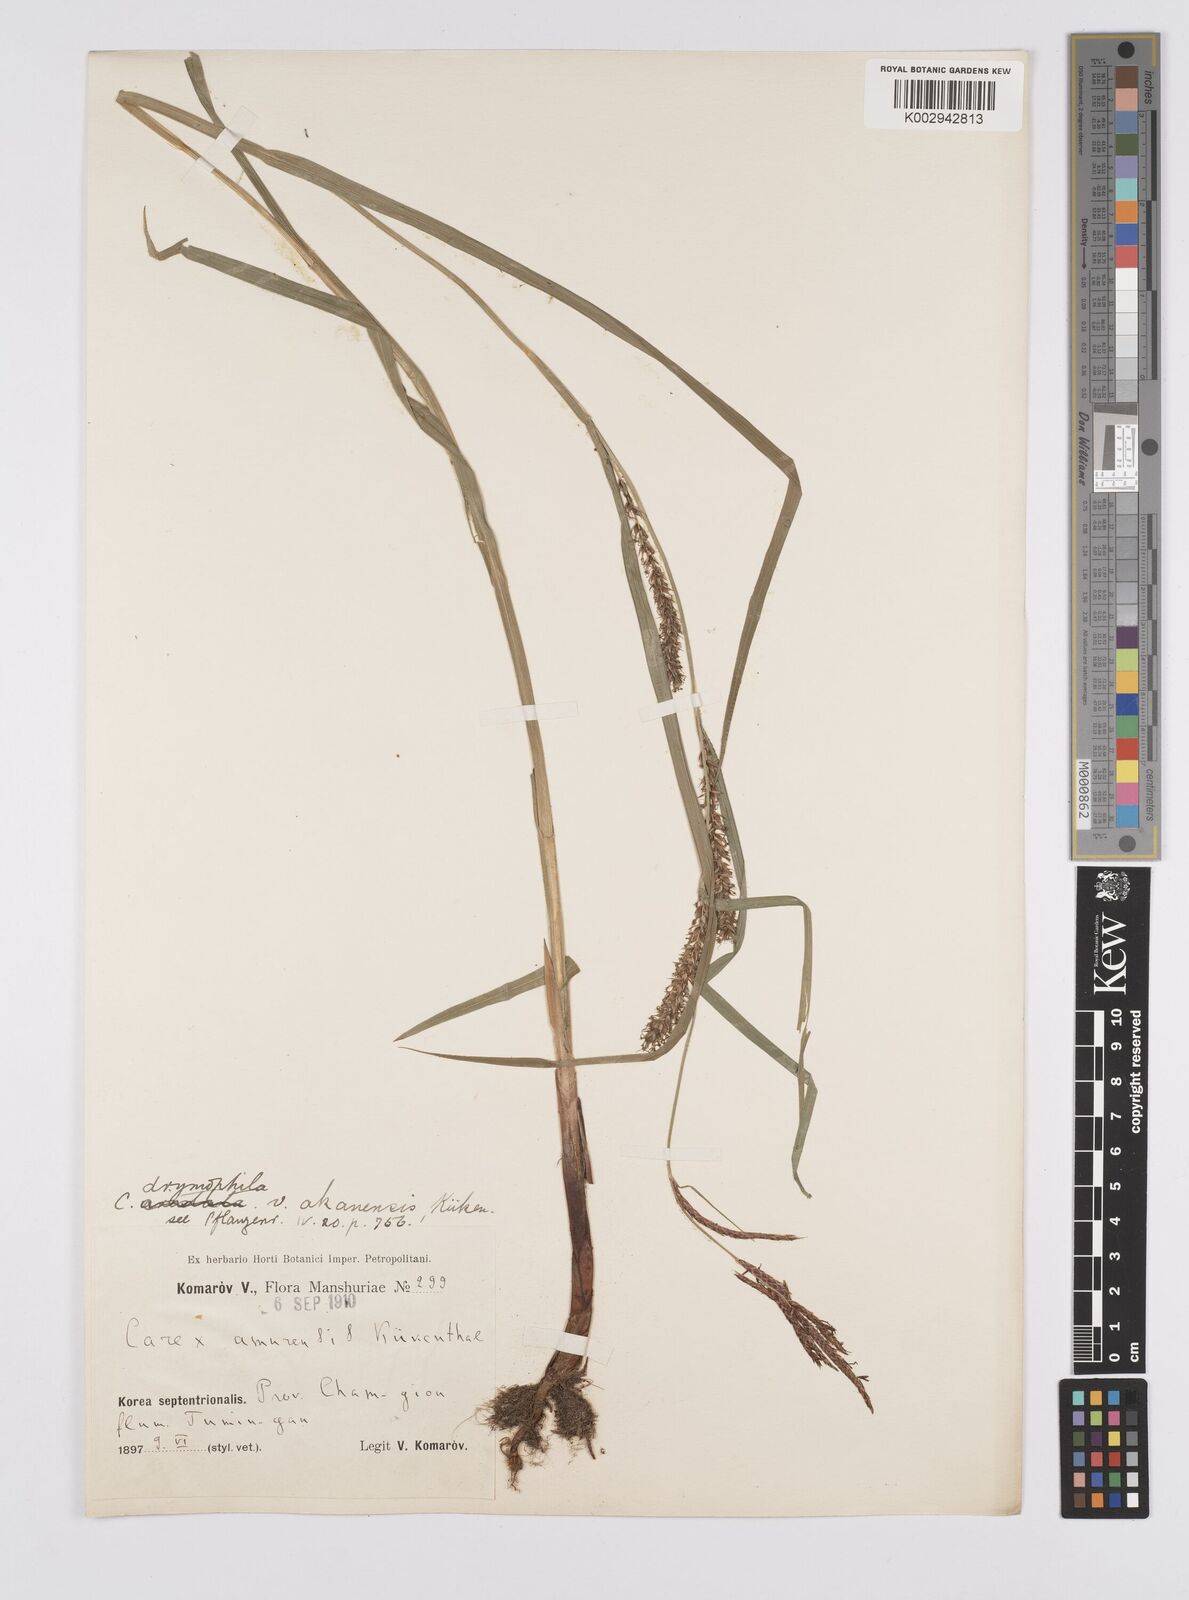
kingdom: Plantae
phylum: Tracheophyta
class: Liliopsida
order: Poales
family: Cyperaceae
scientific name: Cyperaceae
